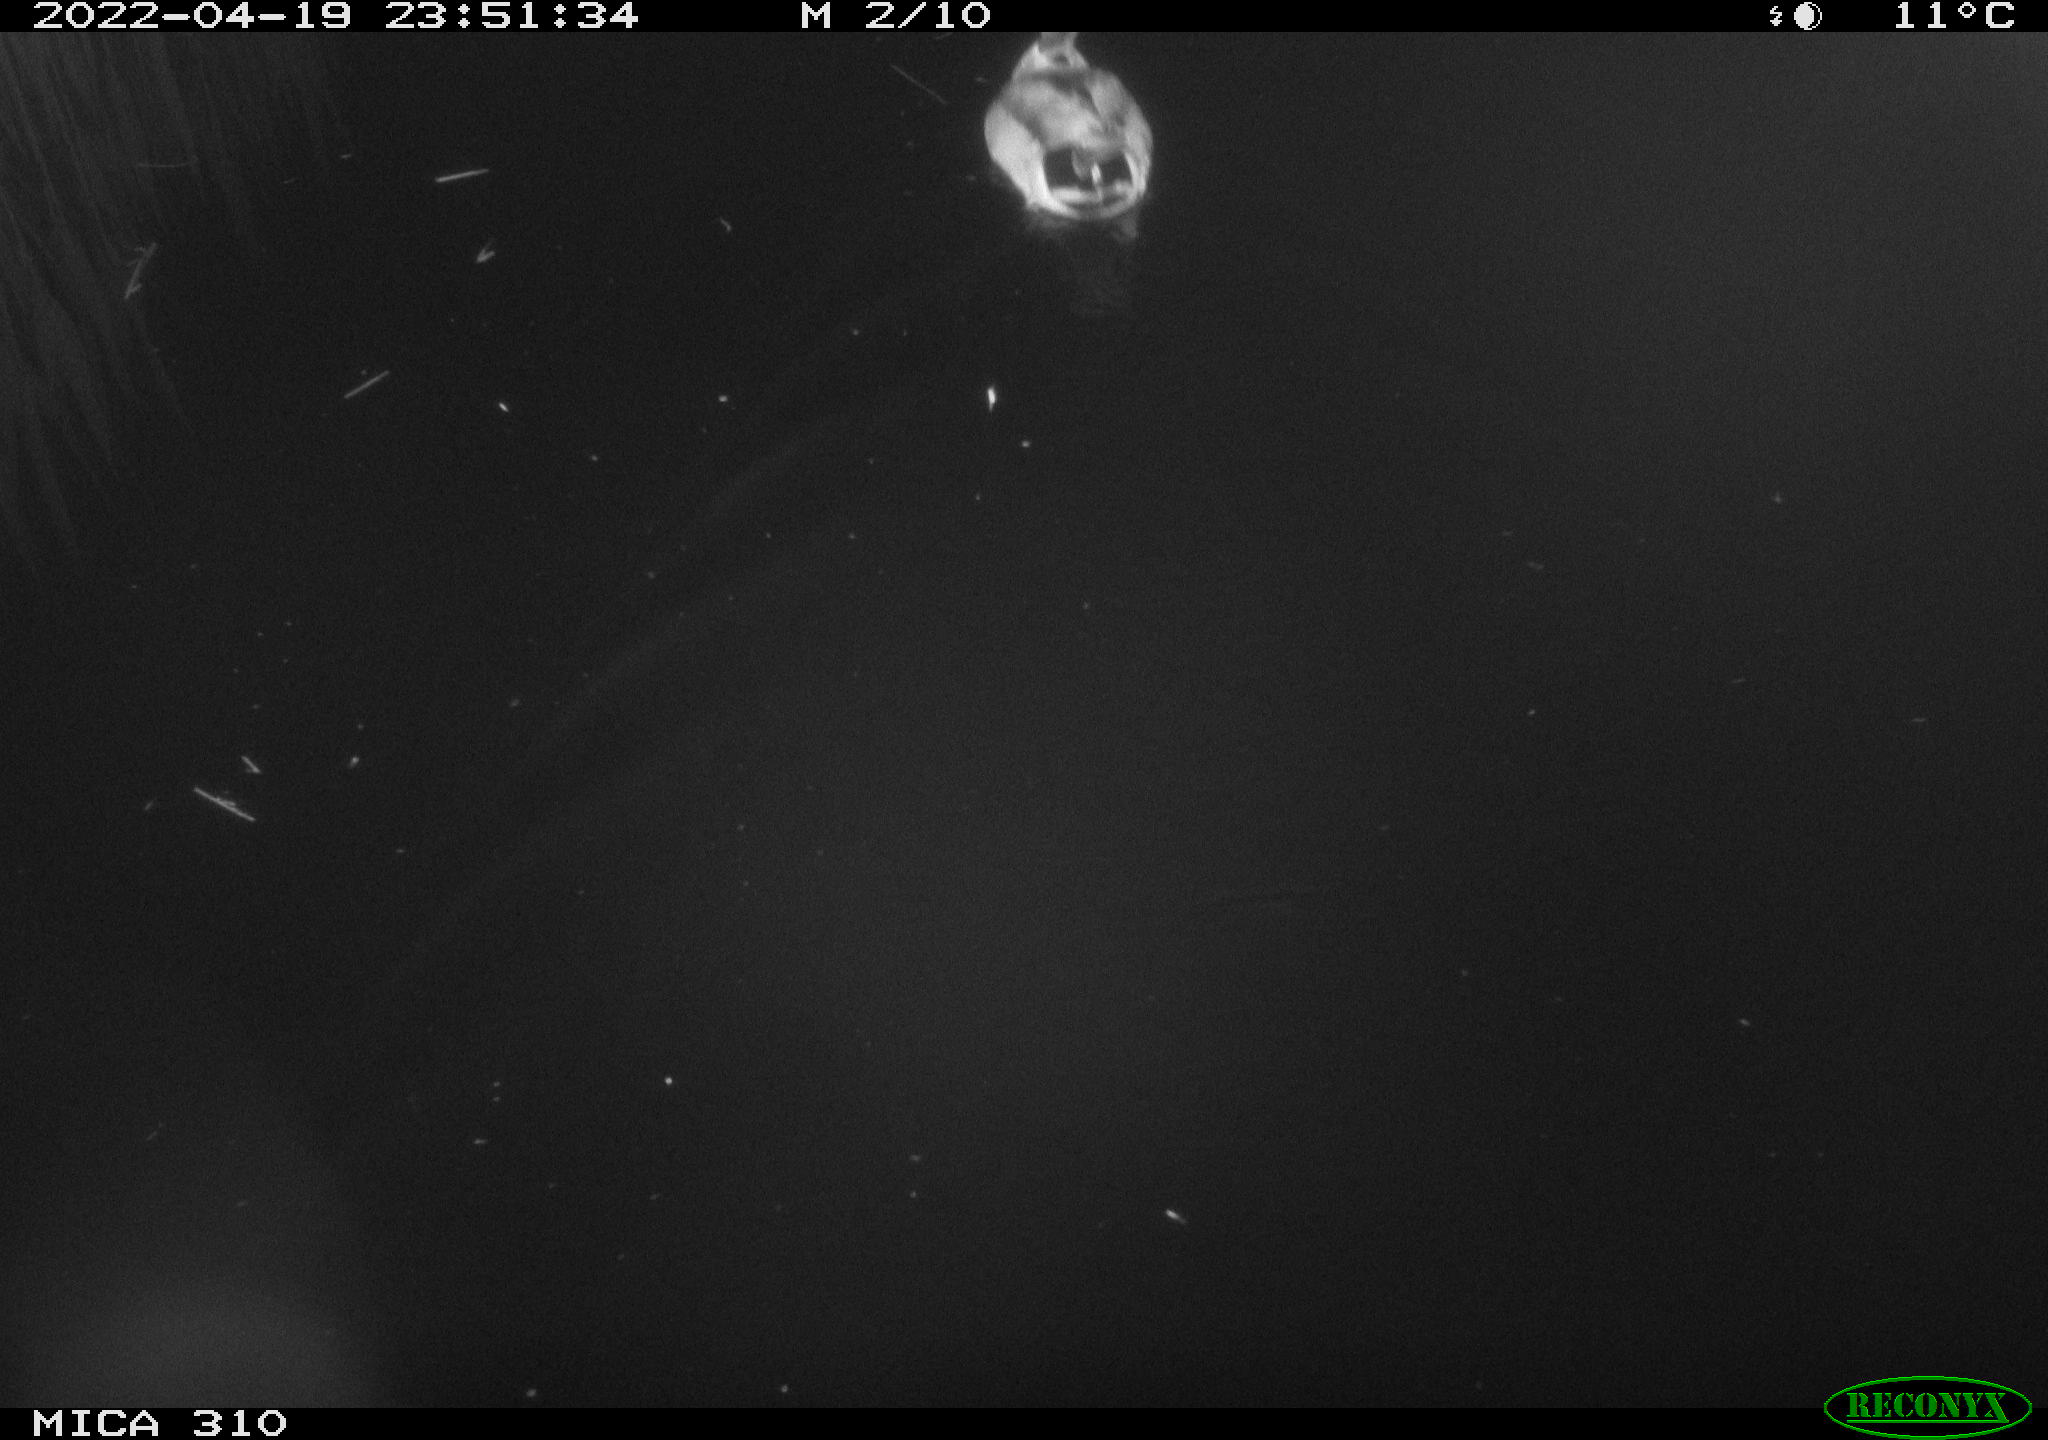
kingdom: Animalia
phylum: Chordata
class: Aves
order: Anseriformes
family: Anatidae
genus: Anas
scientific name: Anas platyrhynchos
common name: Mallard
